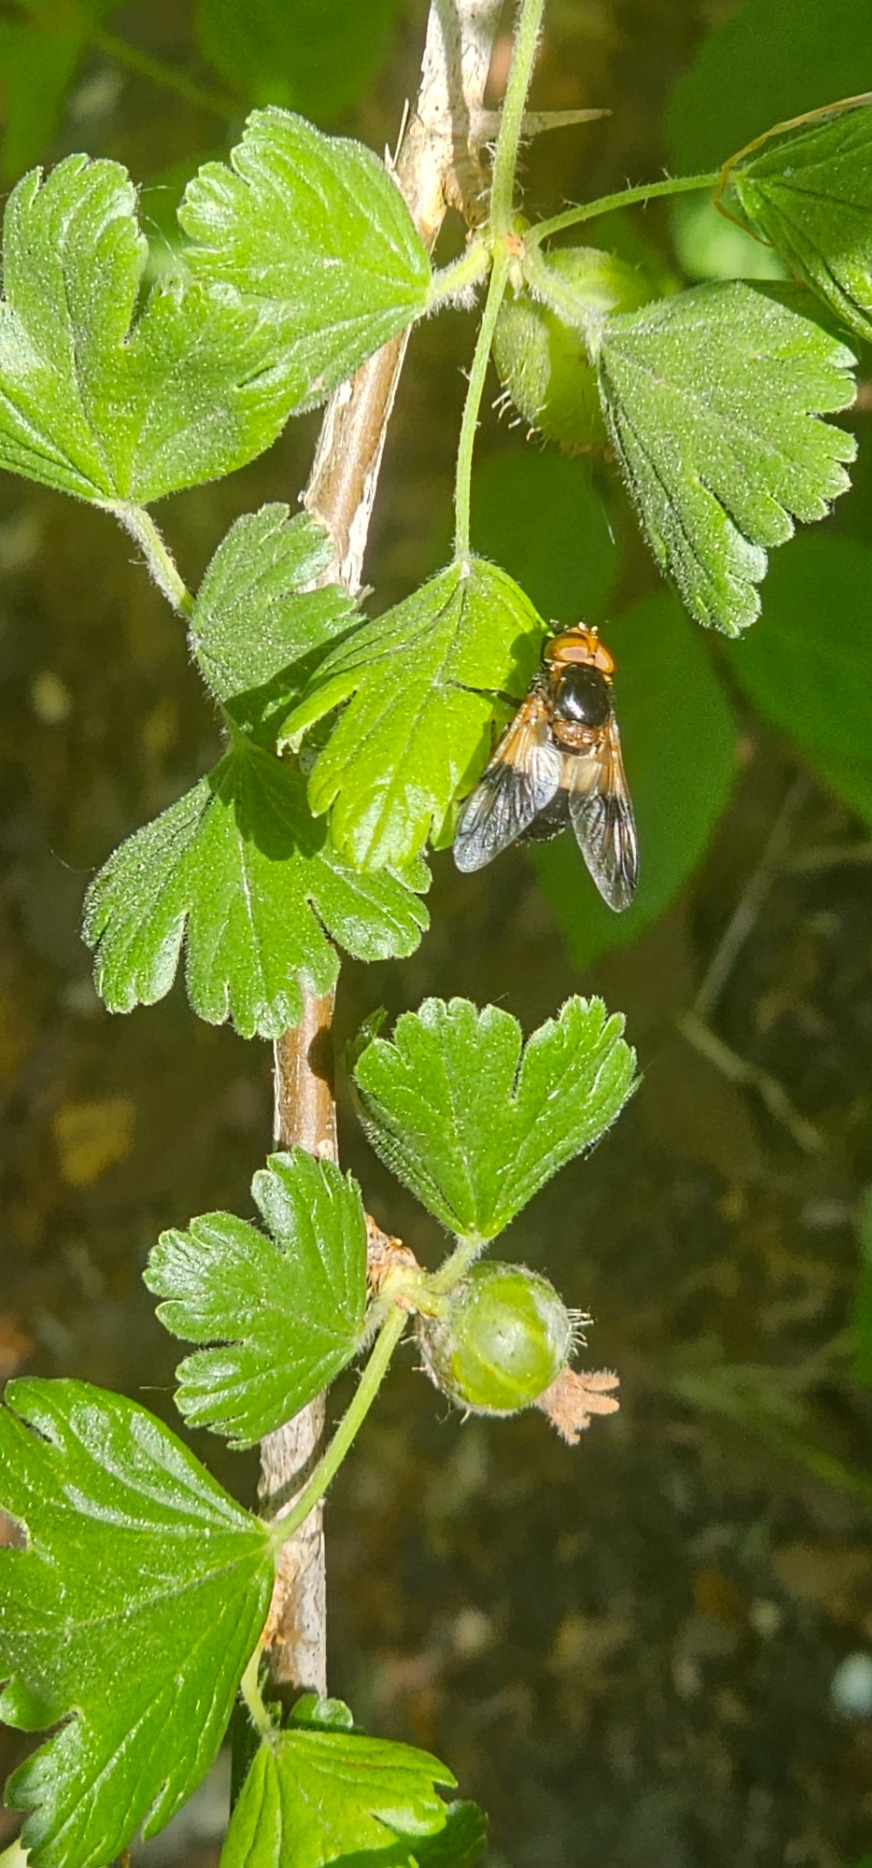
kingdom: Animalia
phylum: Arthropoda
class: Insecta
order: Diptera
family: Syrphidae
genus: Volucella
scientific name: Volucella pellucens
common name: Hvidbåndet humlesvirreflue
